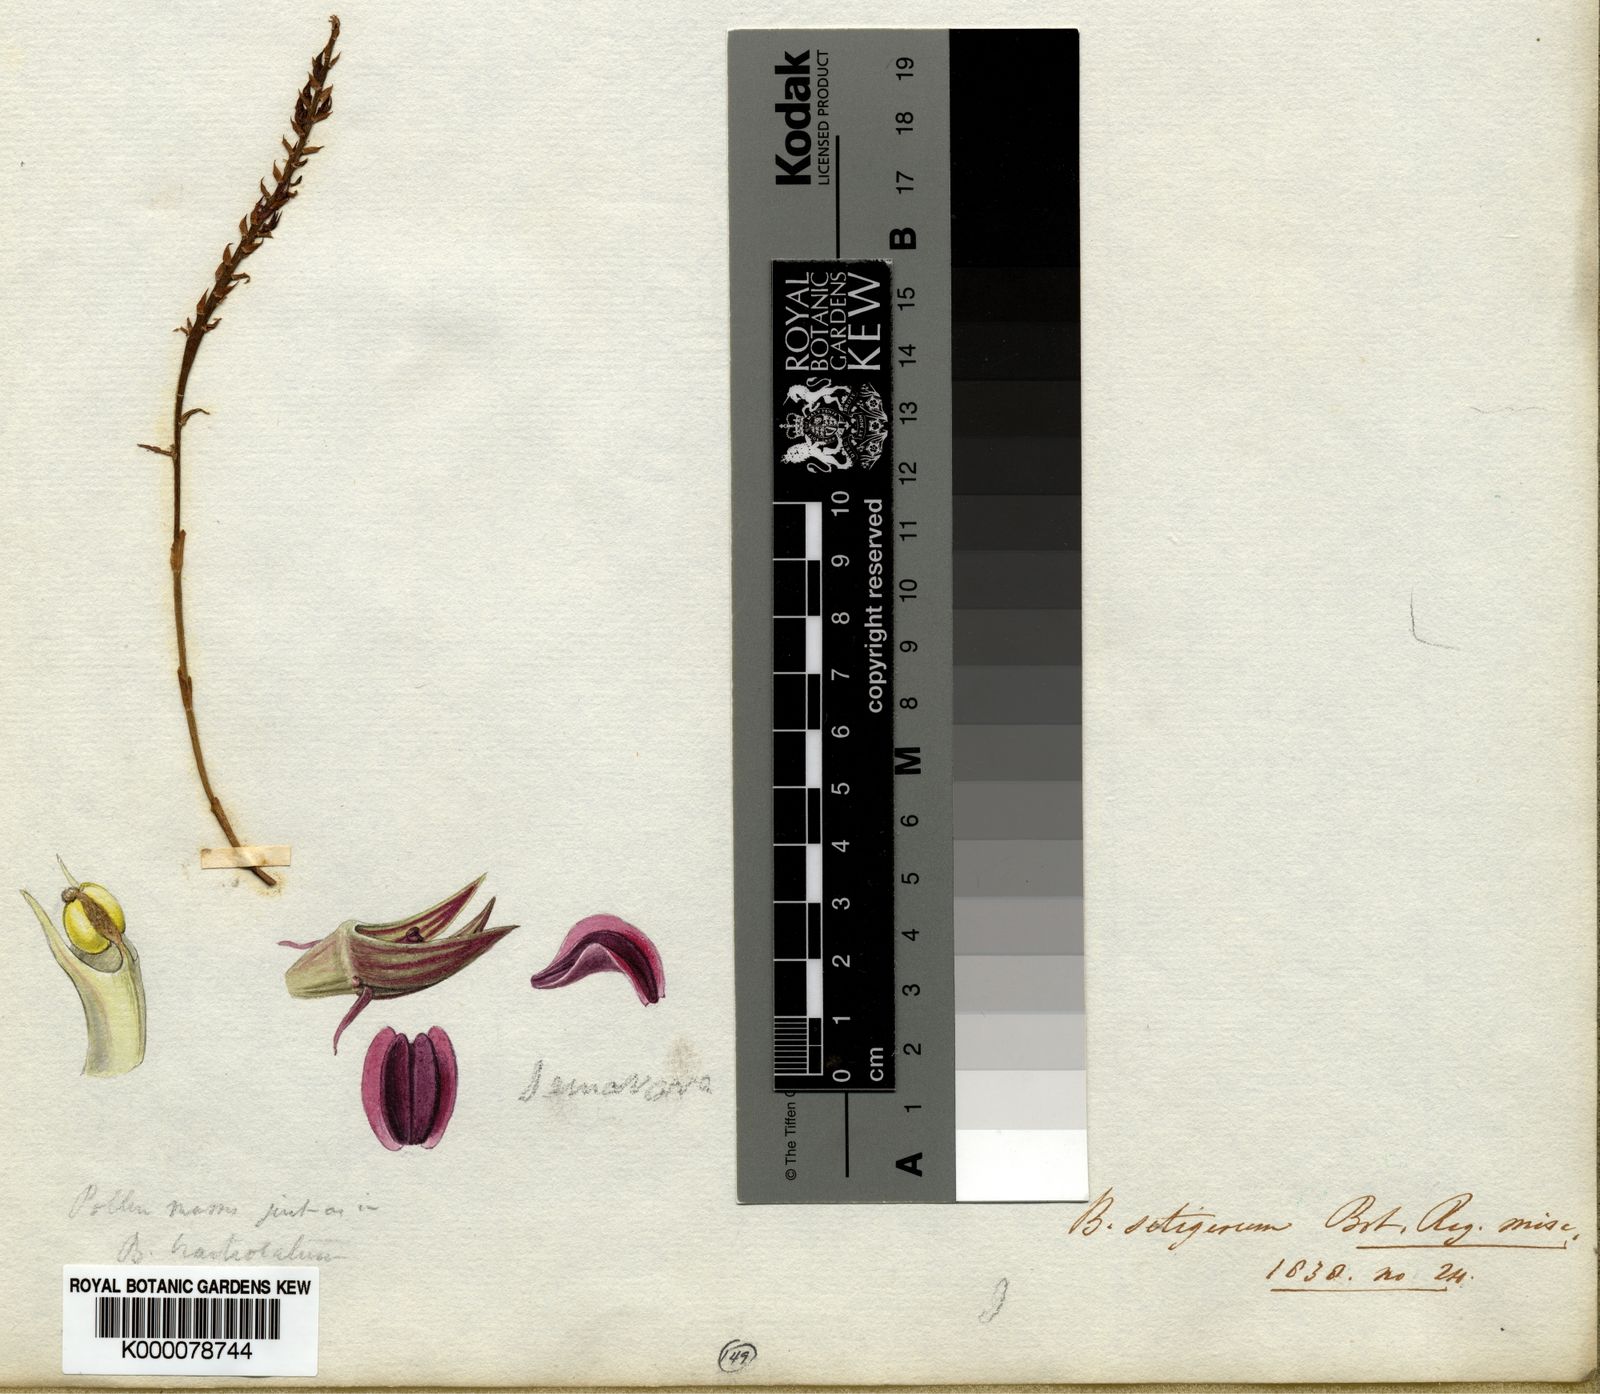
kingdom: Plantae
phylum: Tracheophyta
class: Liliopsida
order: Asparagales
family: Orchidaceae
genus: Bulbophyllum
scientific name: Bulbophyllum setigerum
